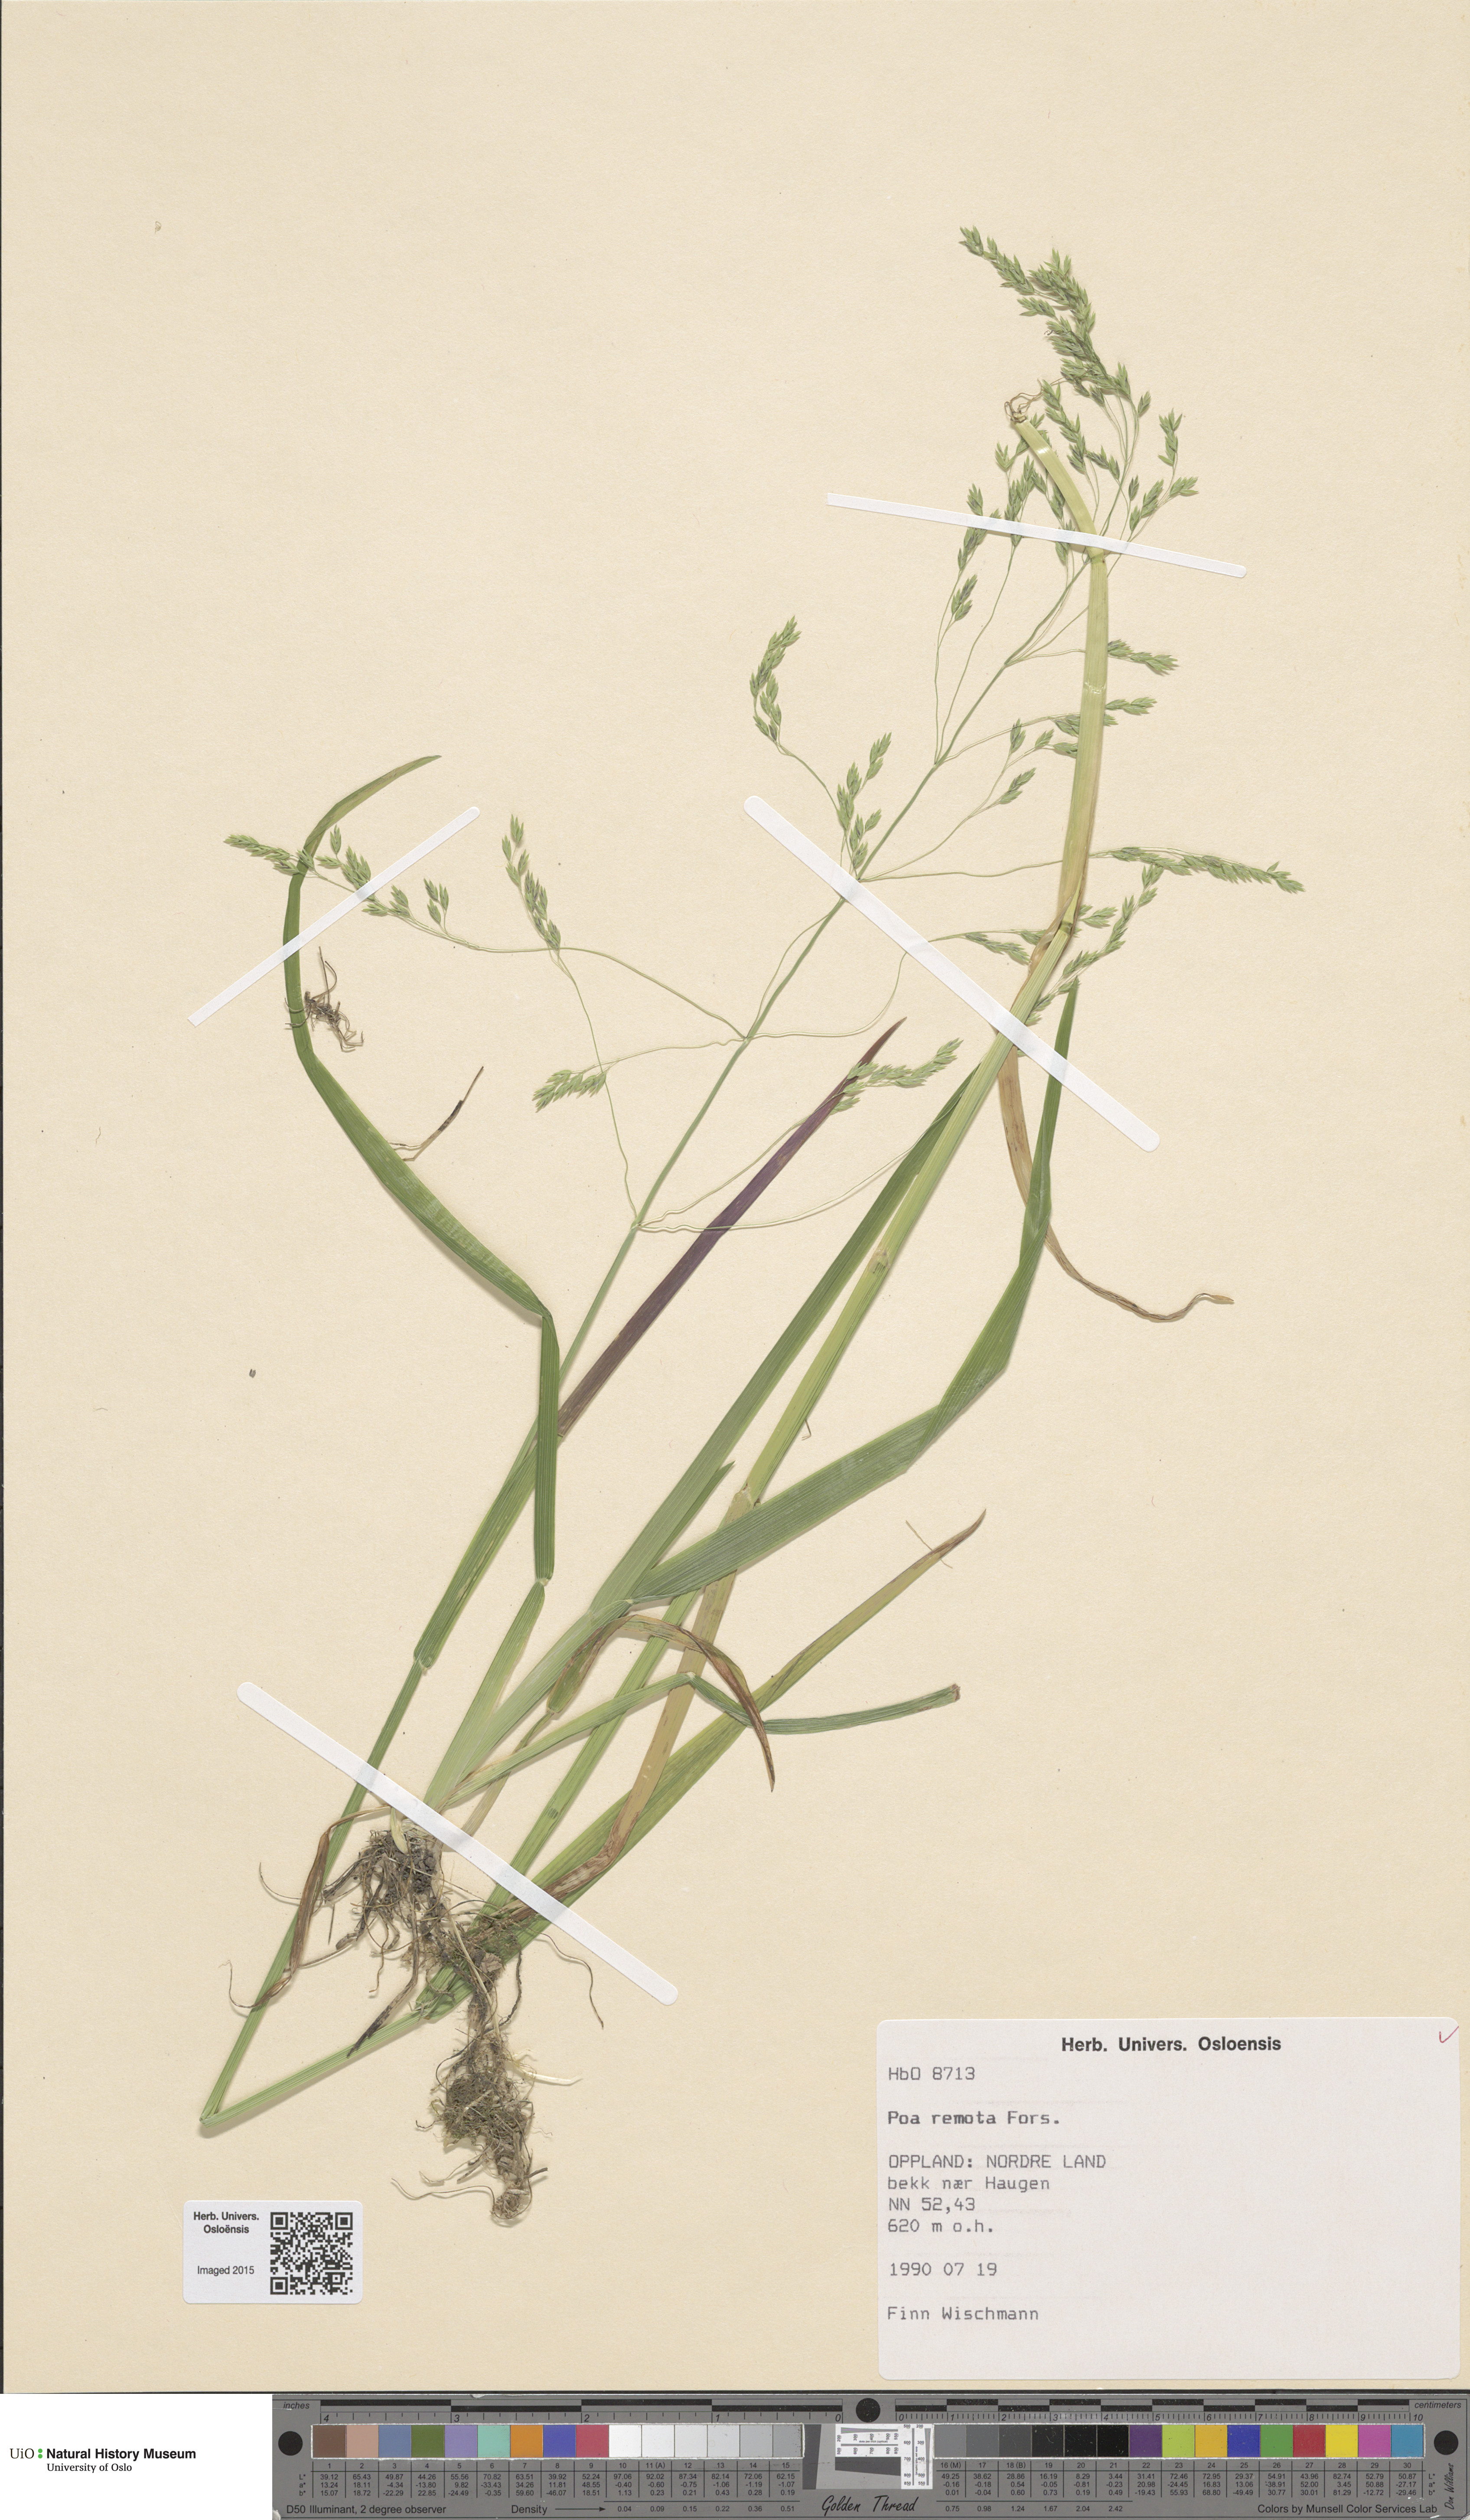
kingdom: Plantae
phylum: Tracheophyta
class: Liliopsida
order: Poales
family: Poaceae
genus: Poa
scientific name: Poa remota
